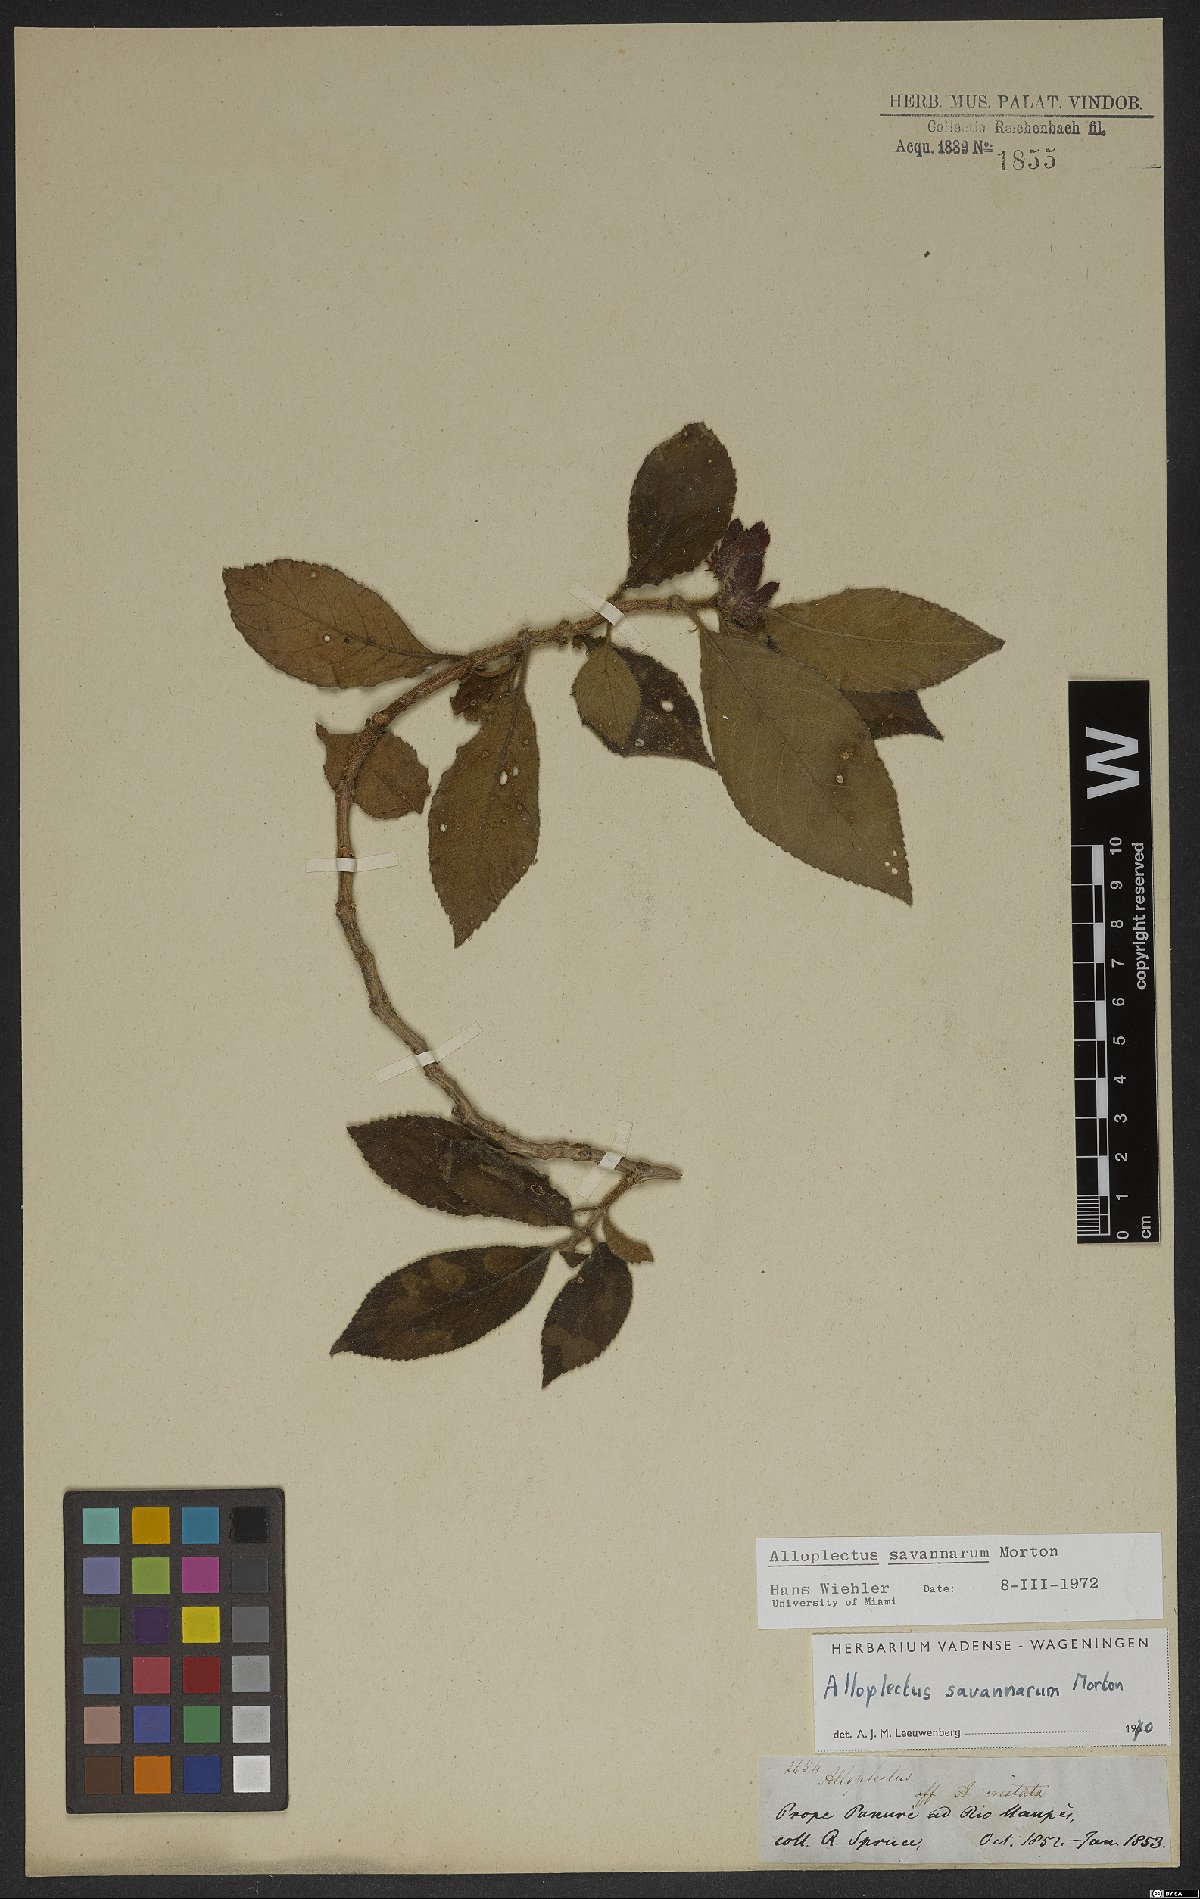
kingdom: Plantae
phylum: Tracheophyta
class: Magnoliopsida
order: Lamiales
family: Gesneriaceae
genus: Lesia
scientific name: Lesia savannarum
